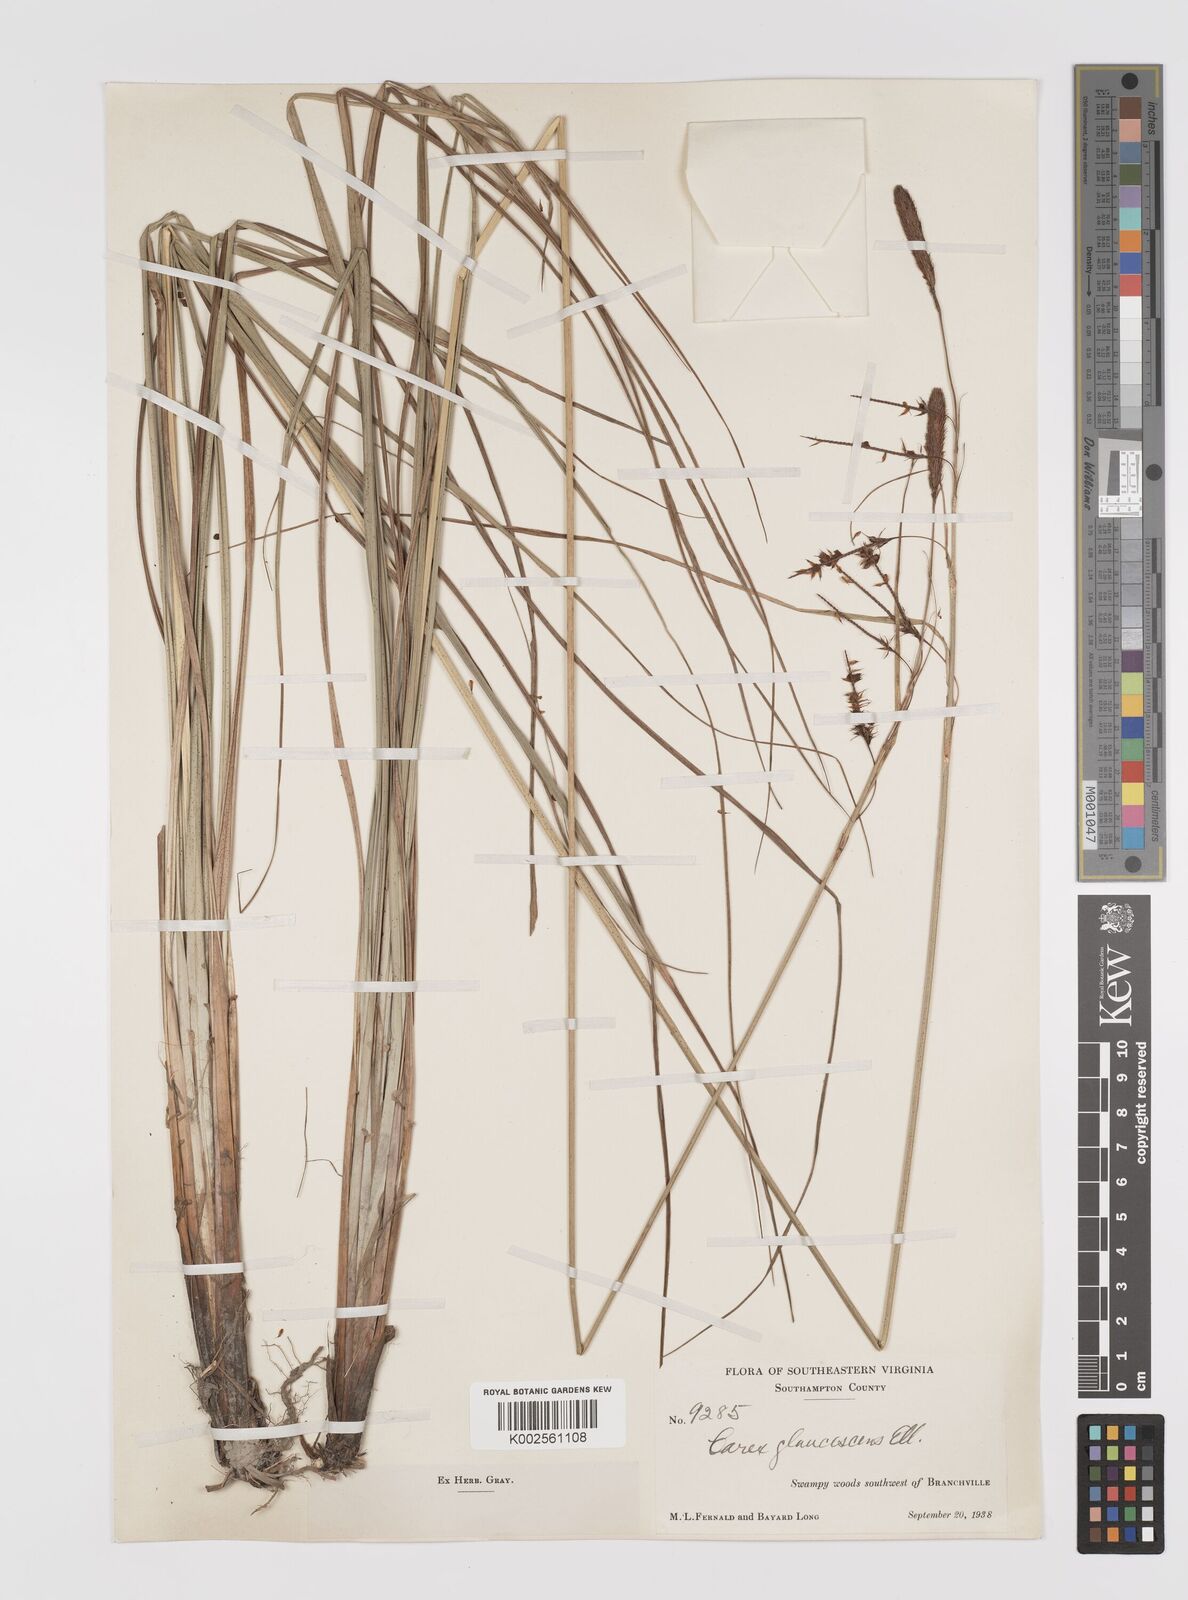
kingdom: Plantae
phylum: Tracheophyta
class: Liliopsida
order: Poales
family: Cyperaceae
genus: Carex
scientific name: Carex glaucescens
